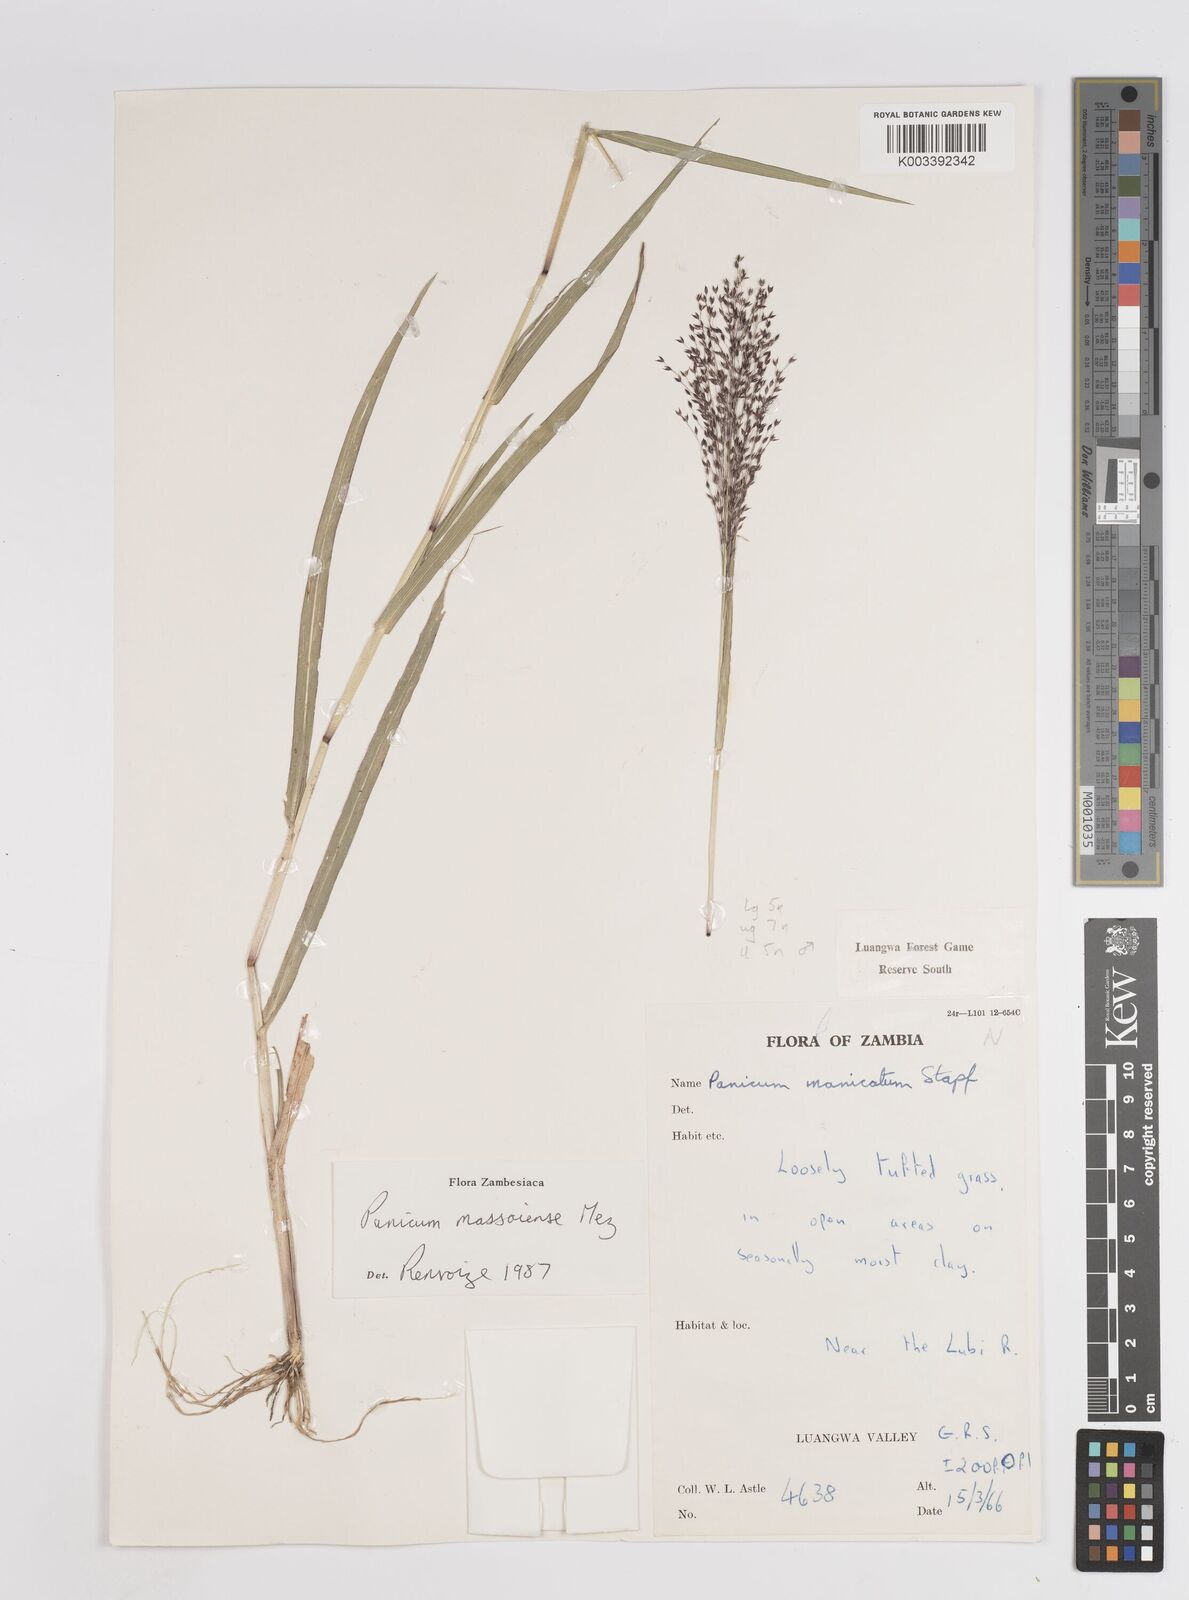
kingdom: Plantae
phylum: Tracheophyta
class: Liliopsida
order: Poales
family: Poaceae
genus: Panicum
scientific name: Panicum massaiense
